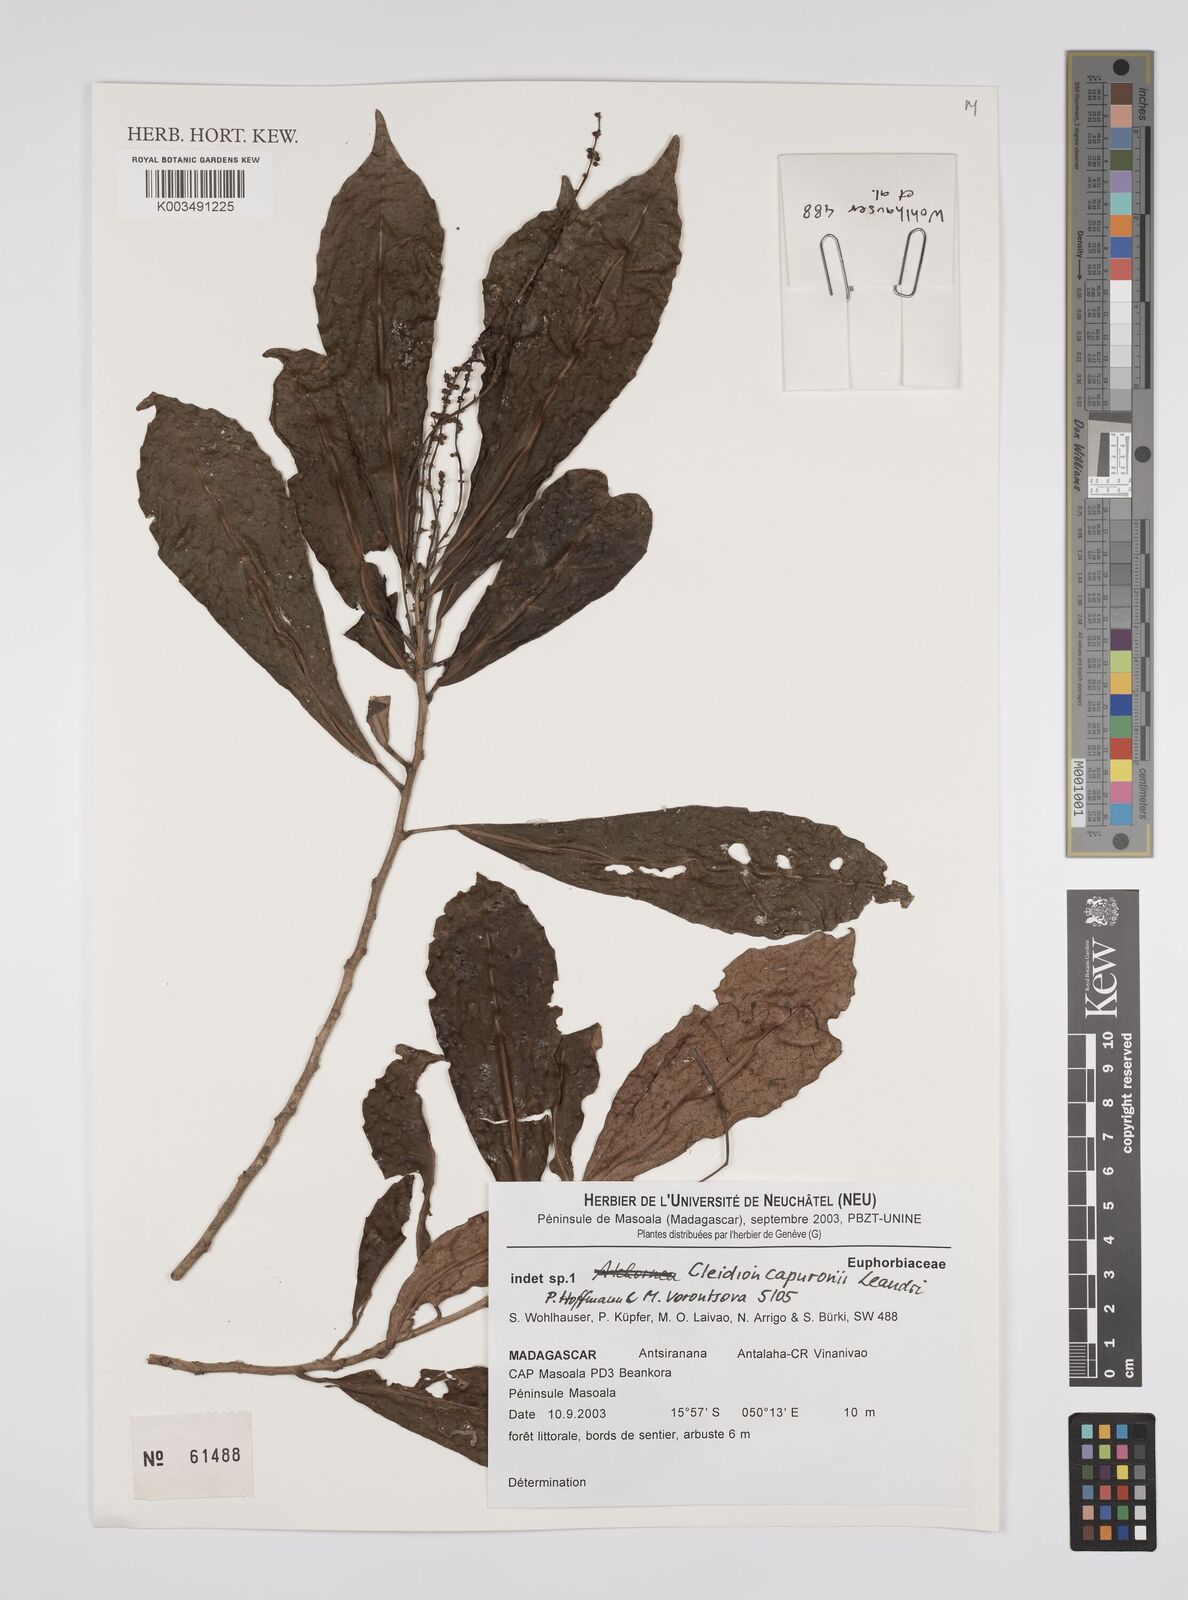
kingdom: Plantae
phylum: Tracheophyta
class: Magnoliopsida
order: Malpighiales
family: Euphorbiaceae
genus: Cleidion
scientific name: Cleidion capuronii
